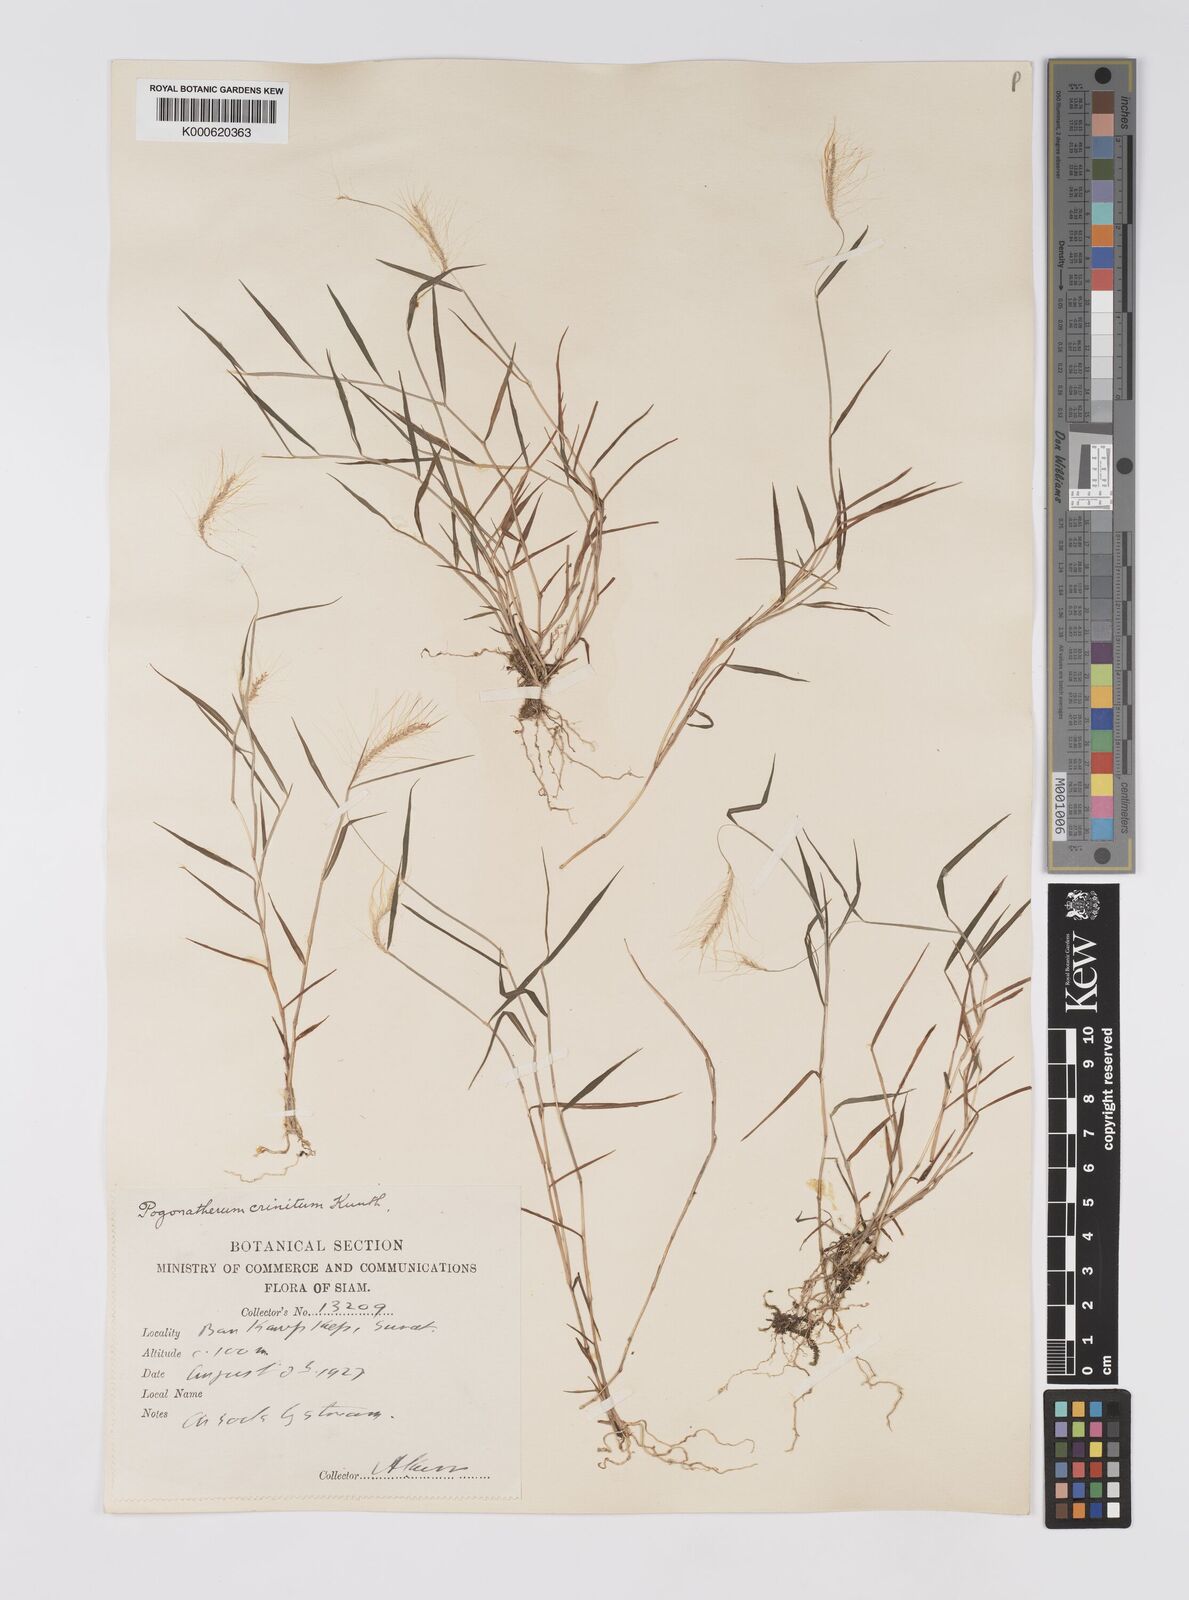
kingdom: Plantae
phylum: Tracheophyta
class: Liliopsida
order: Poales
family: Poaceae
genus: Pogonatherum
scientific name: Pogonatherum crinitum
